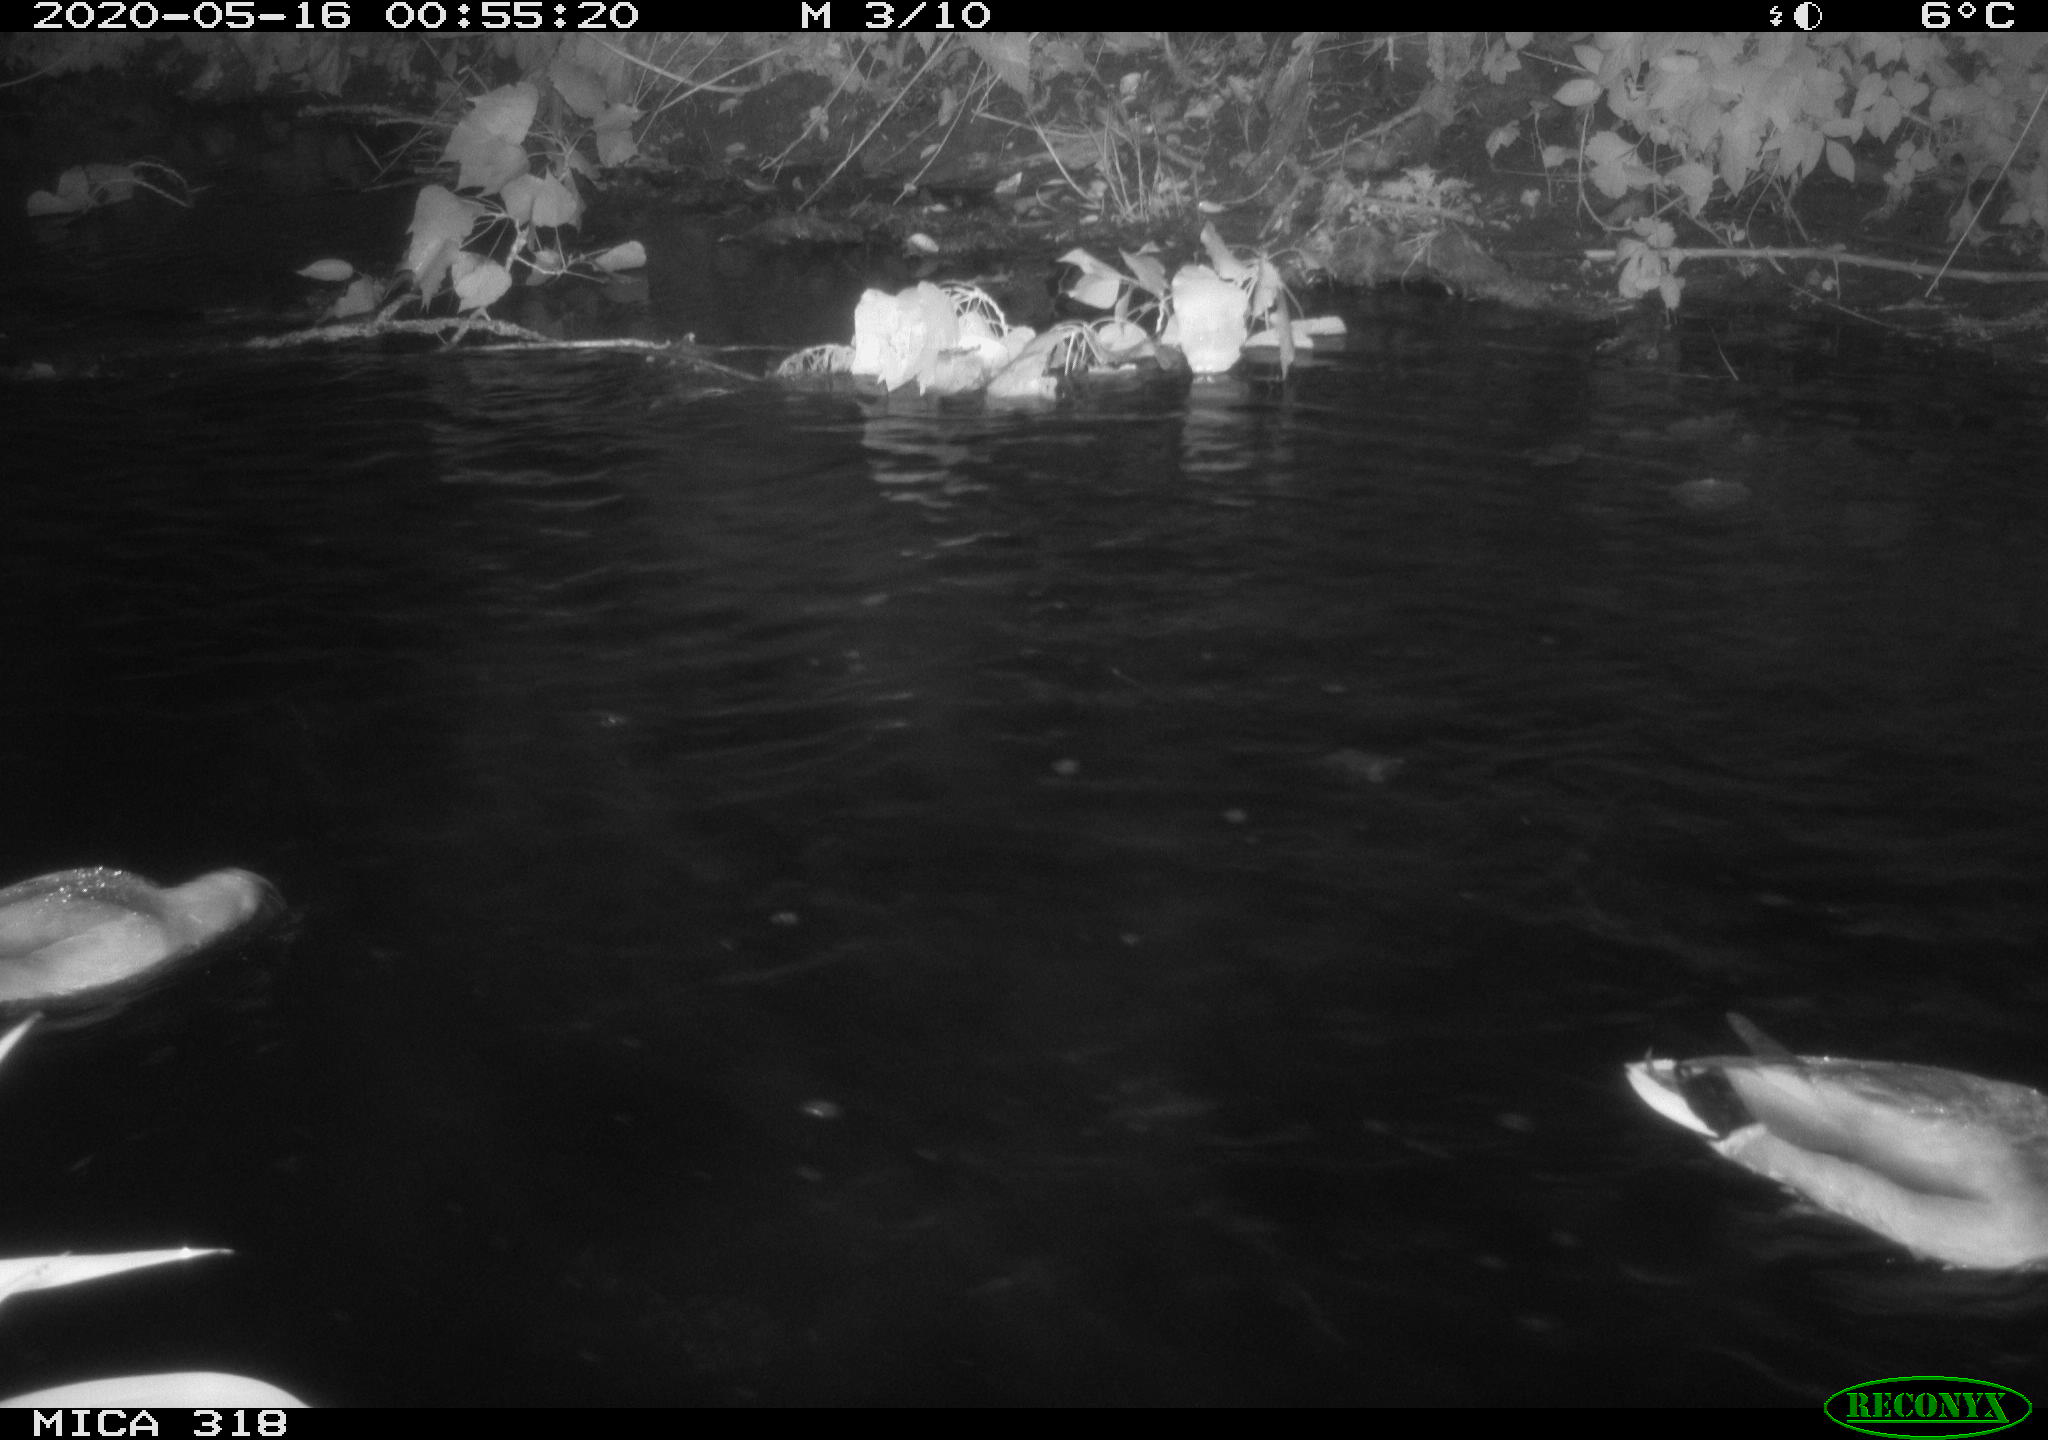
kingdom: Animalia
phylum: Chordata
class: Aves
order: Anseriformes
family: Anatidae
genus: Anas
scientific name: Anas platyrhynchos
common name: Mallard
